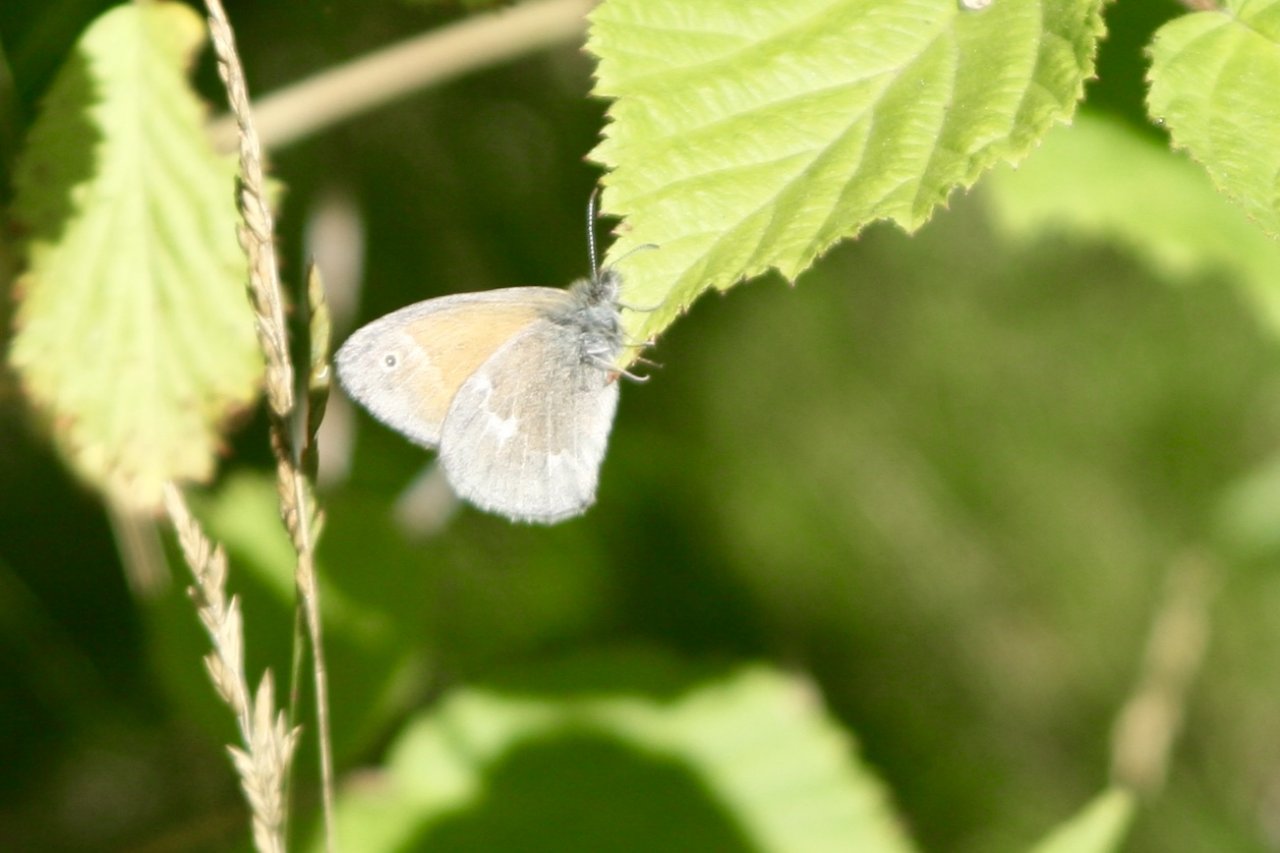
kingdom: Animalia
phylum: Arthropoda
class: Insecta
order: Lepidoptera
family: Nymphalidae
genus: Coenonympha
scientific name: Coenonympha tullia
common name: Large Heath
